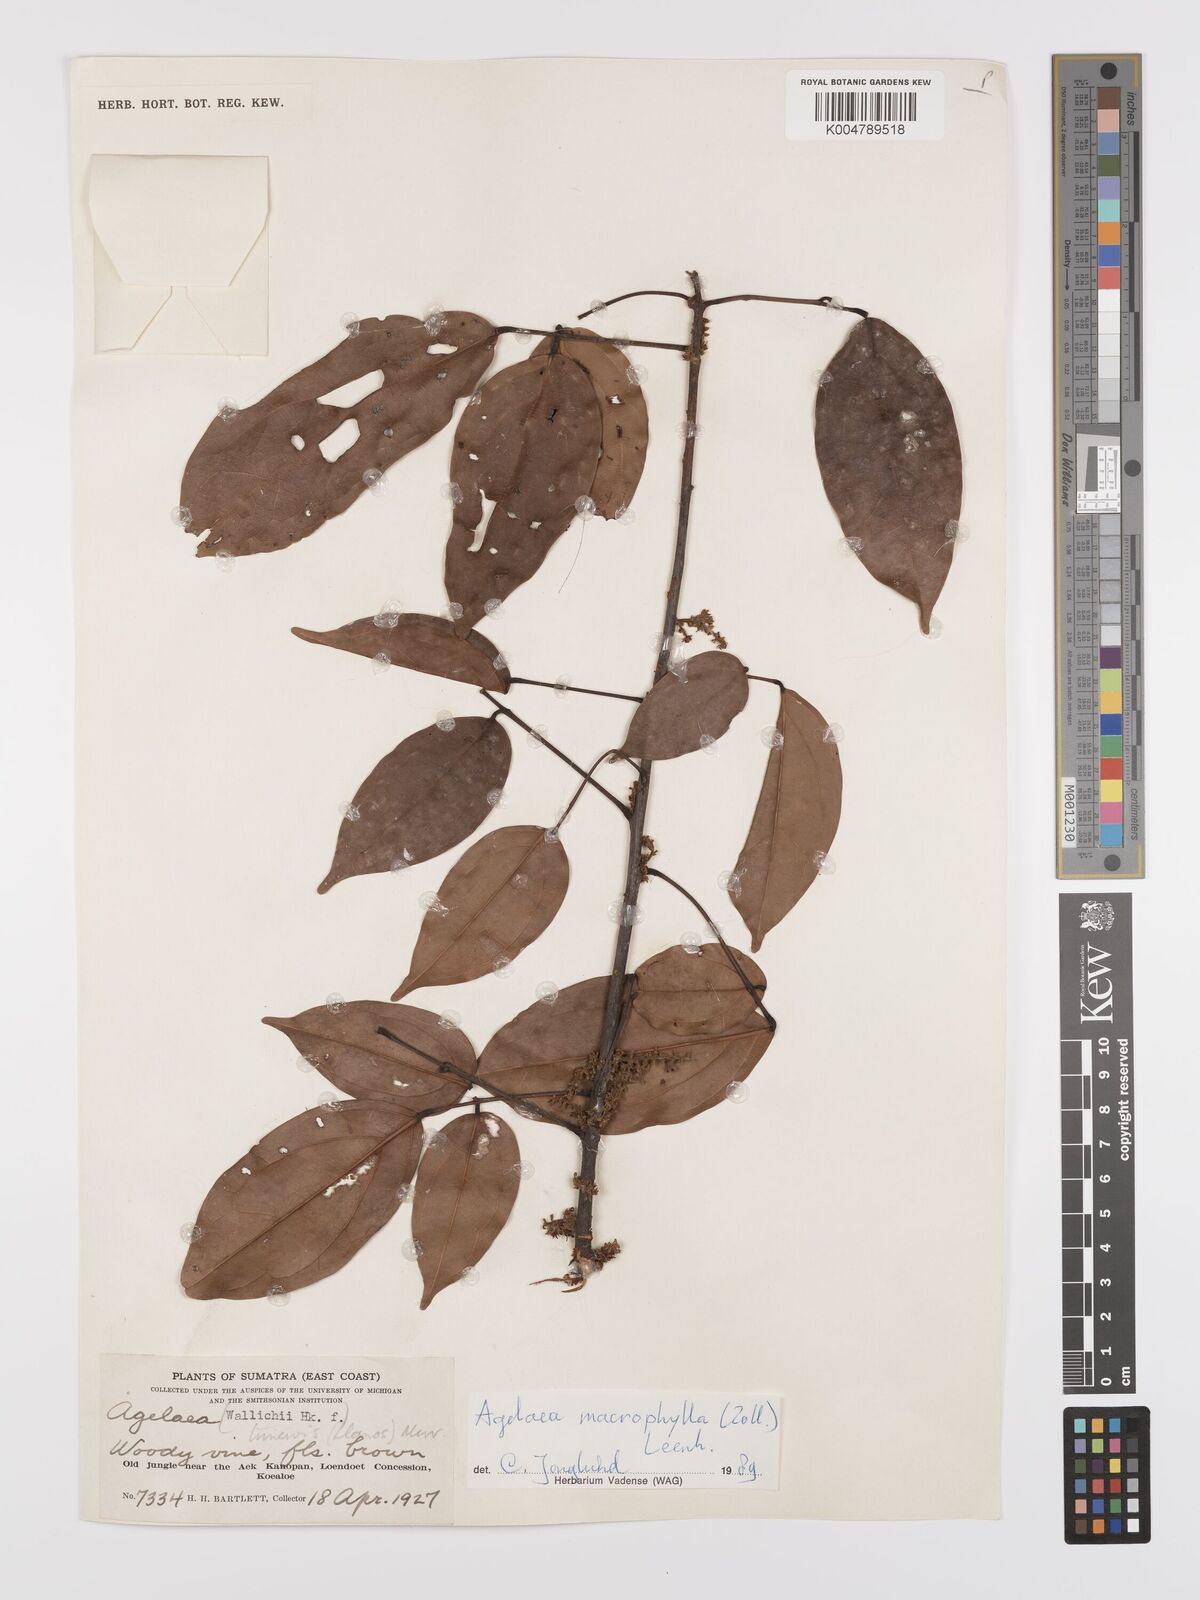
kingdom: Plantae
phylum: Tracheophyta
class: Magnoliopsida
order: Oxalidales
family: Connaraceae
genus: Agelaea
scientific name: Agelaea trinervis
